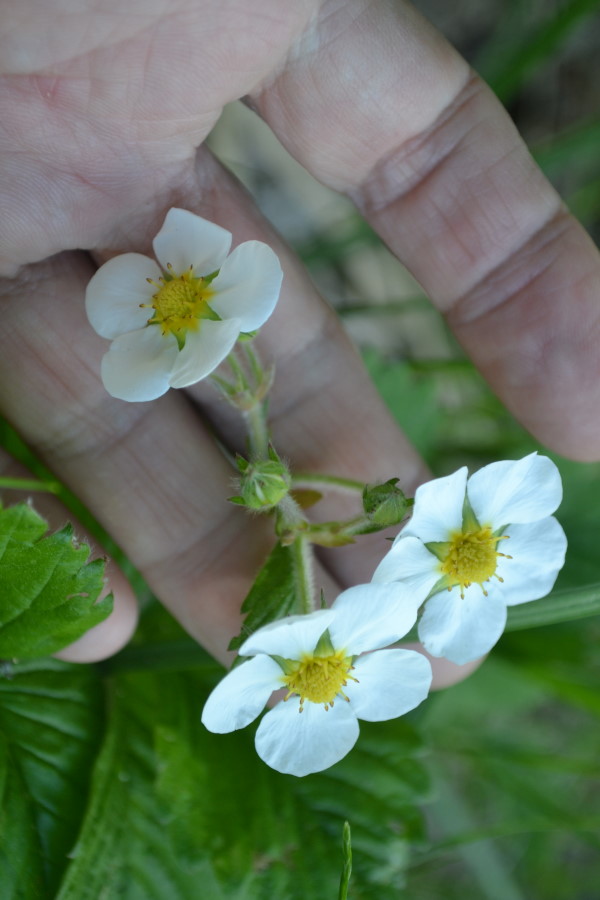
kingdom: Plantae
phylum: Tracheophyta
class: Magnoliopsida
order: Rosales
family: Rosaceae
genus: Fragaria
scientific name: Fragaria moschata
